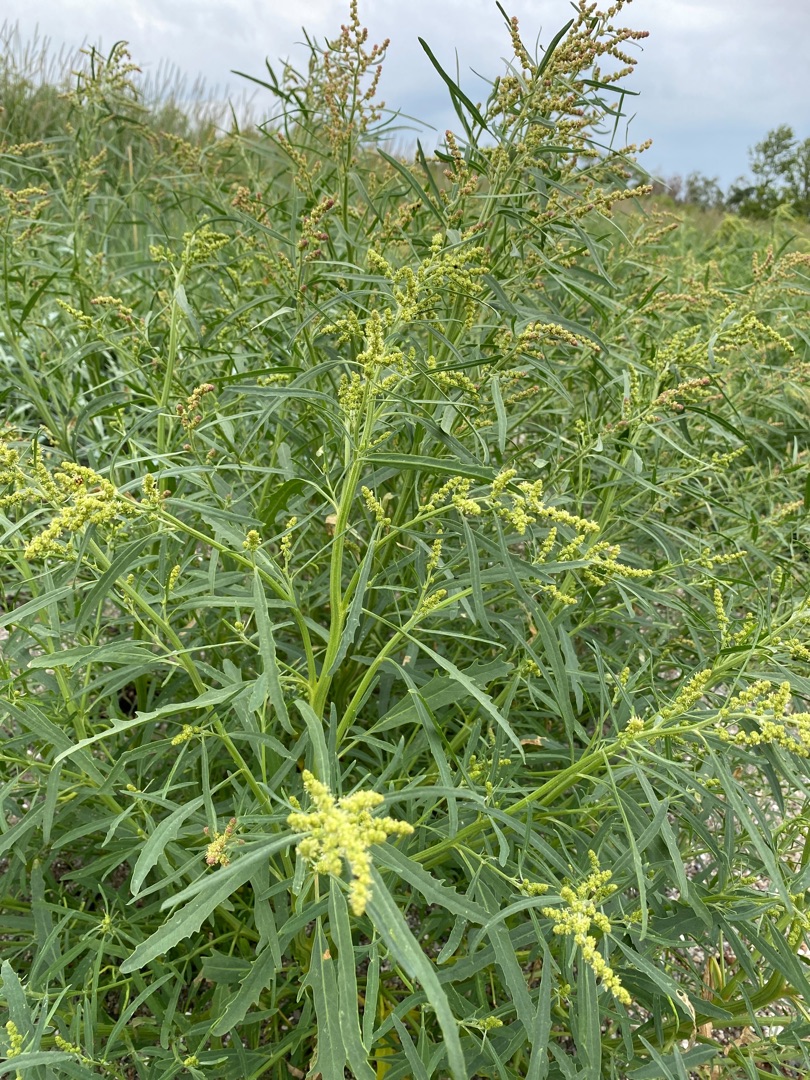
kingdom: Plantae
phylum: Tracheophyta
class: Magnoliopsida
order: Caryophyllales
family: Amaranthaceae
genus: Atriplex
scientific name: Atriplex littoralis
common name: Strand-mælde
